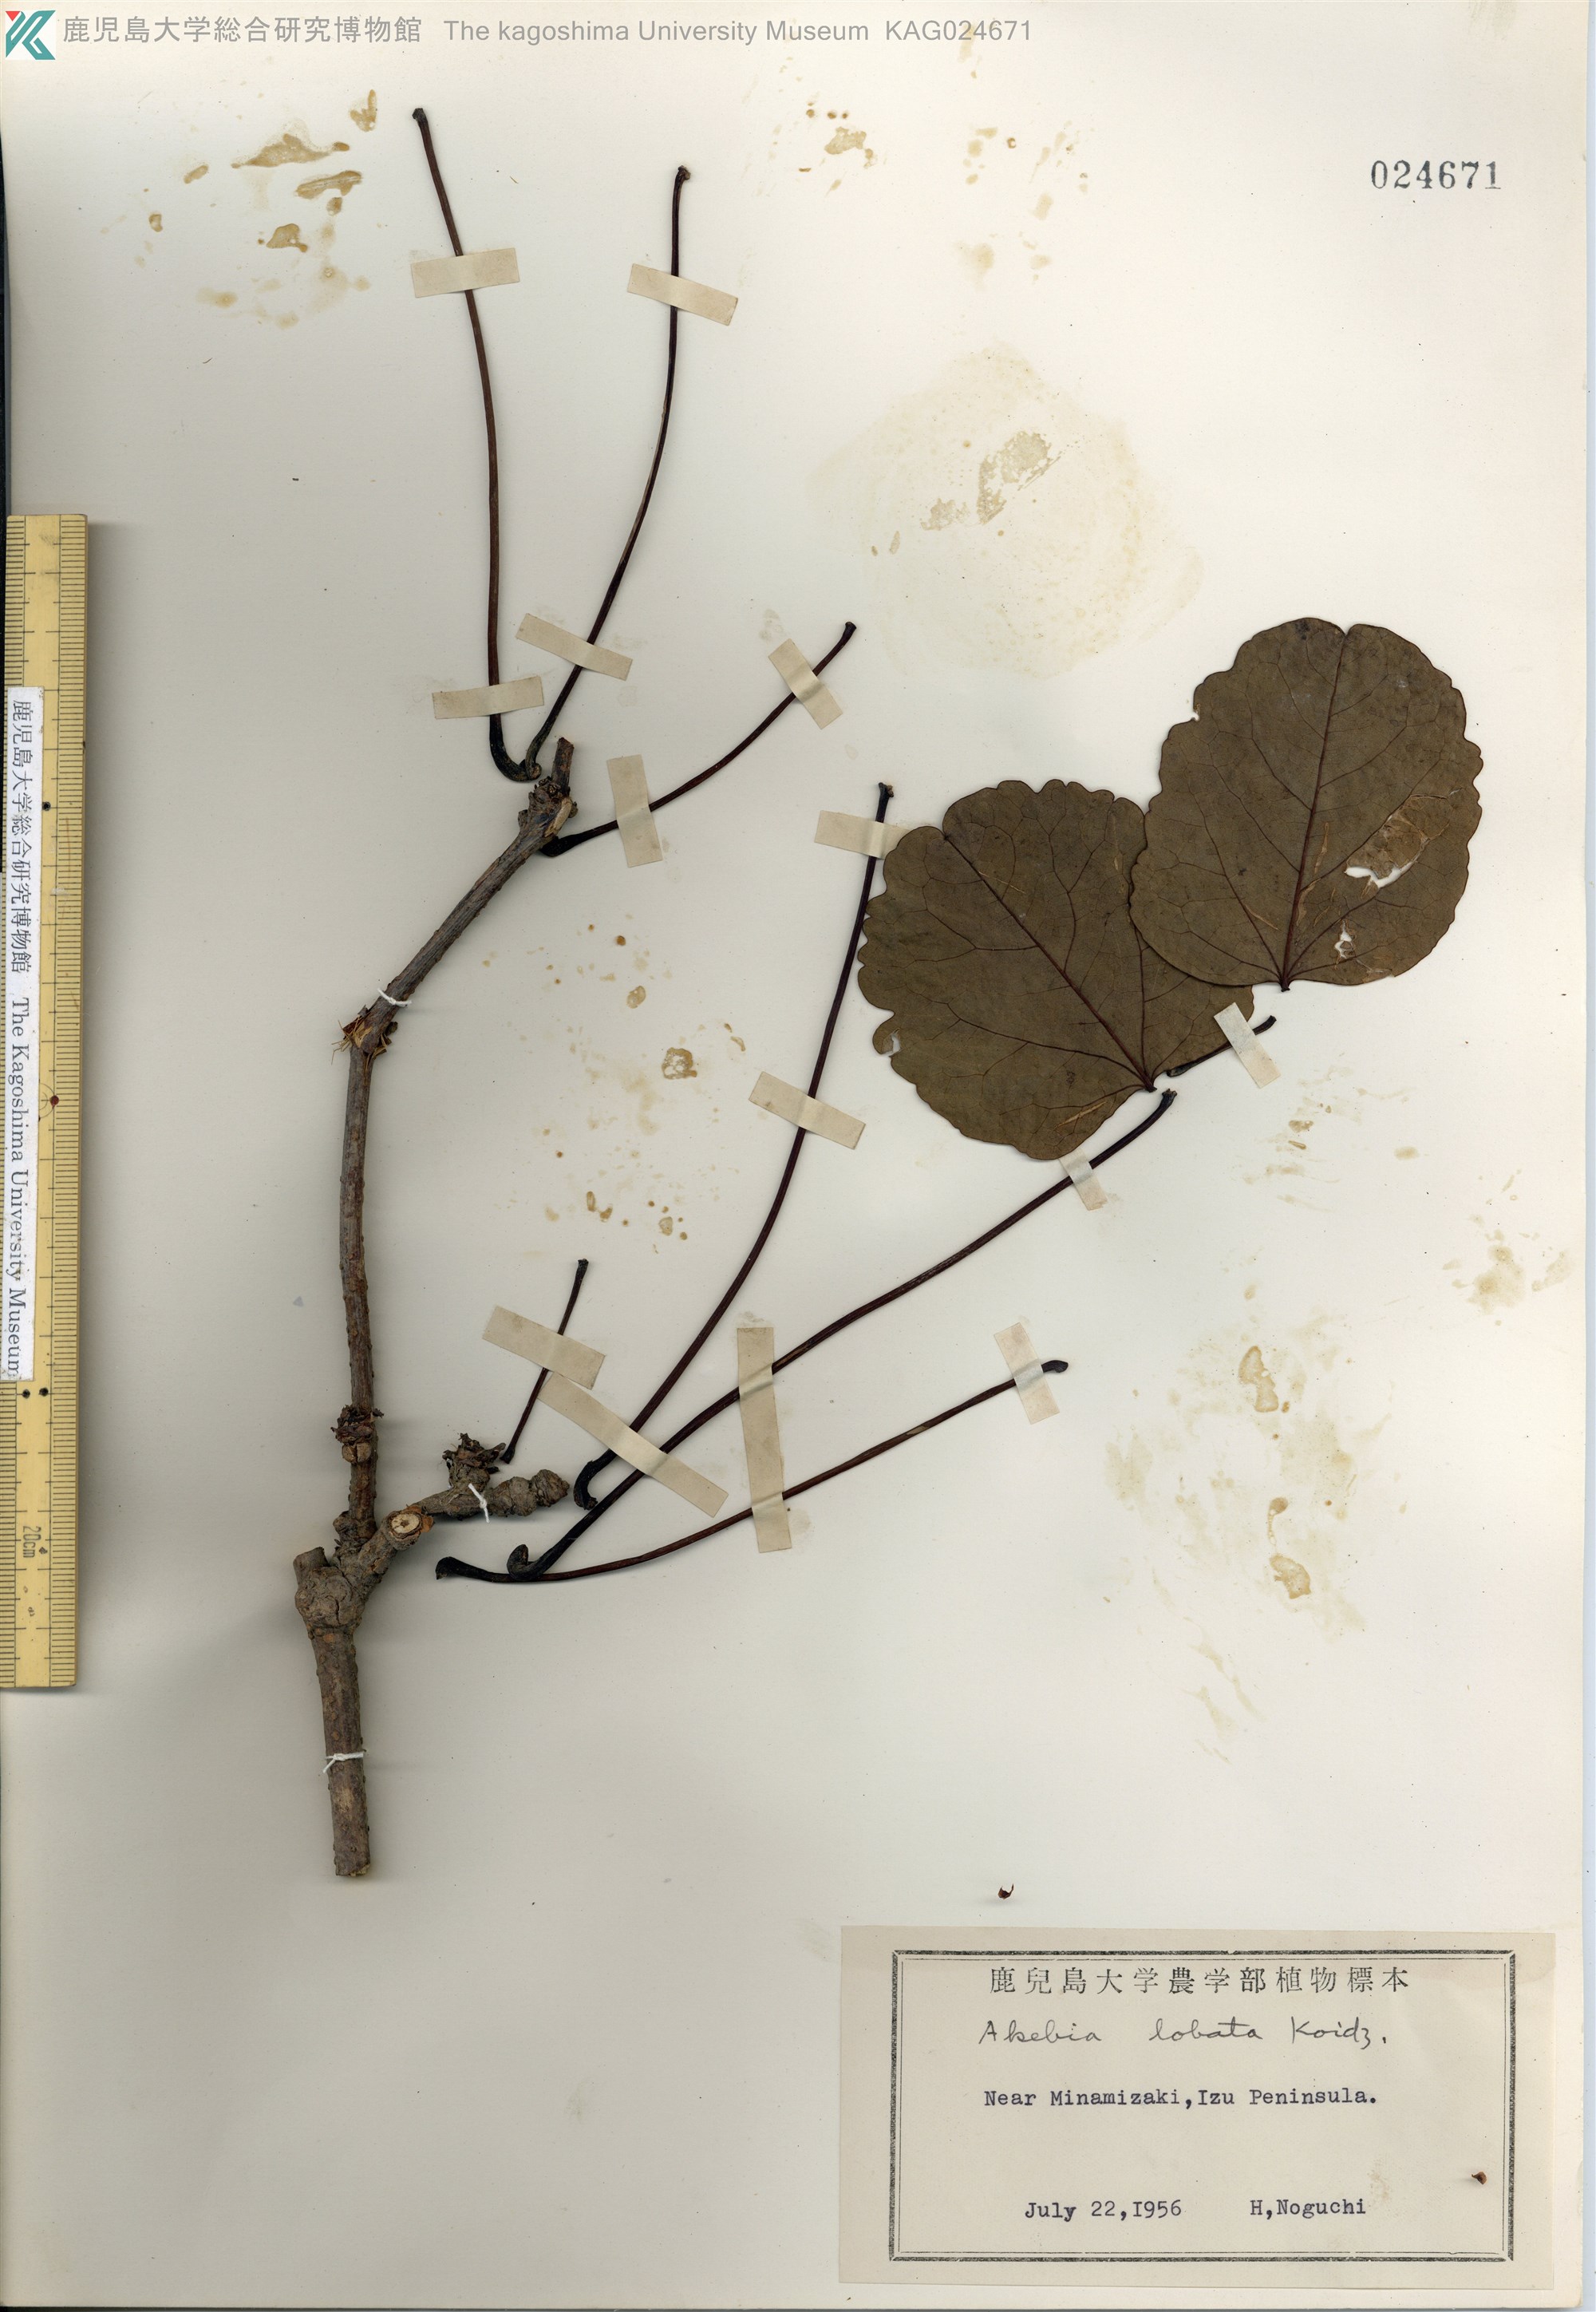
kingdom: Plantae
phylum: Tracheophyta
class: Magnoliopsida
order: Ranunculales
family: Lardizabalaceae
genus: Akebia
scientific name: Akebia trifoliata
